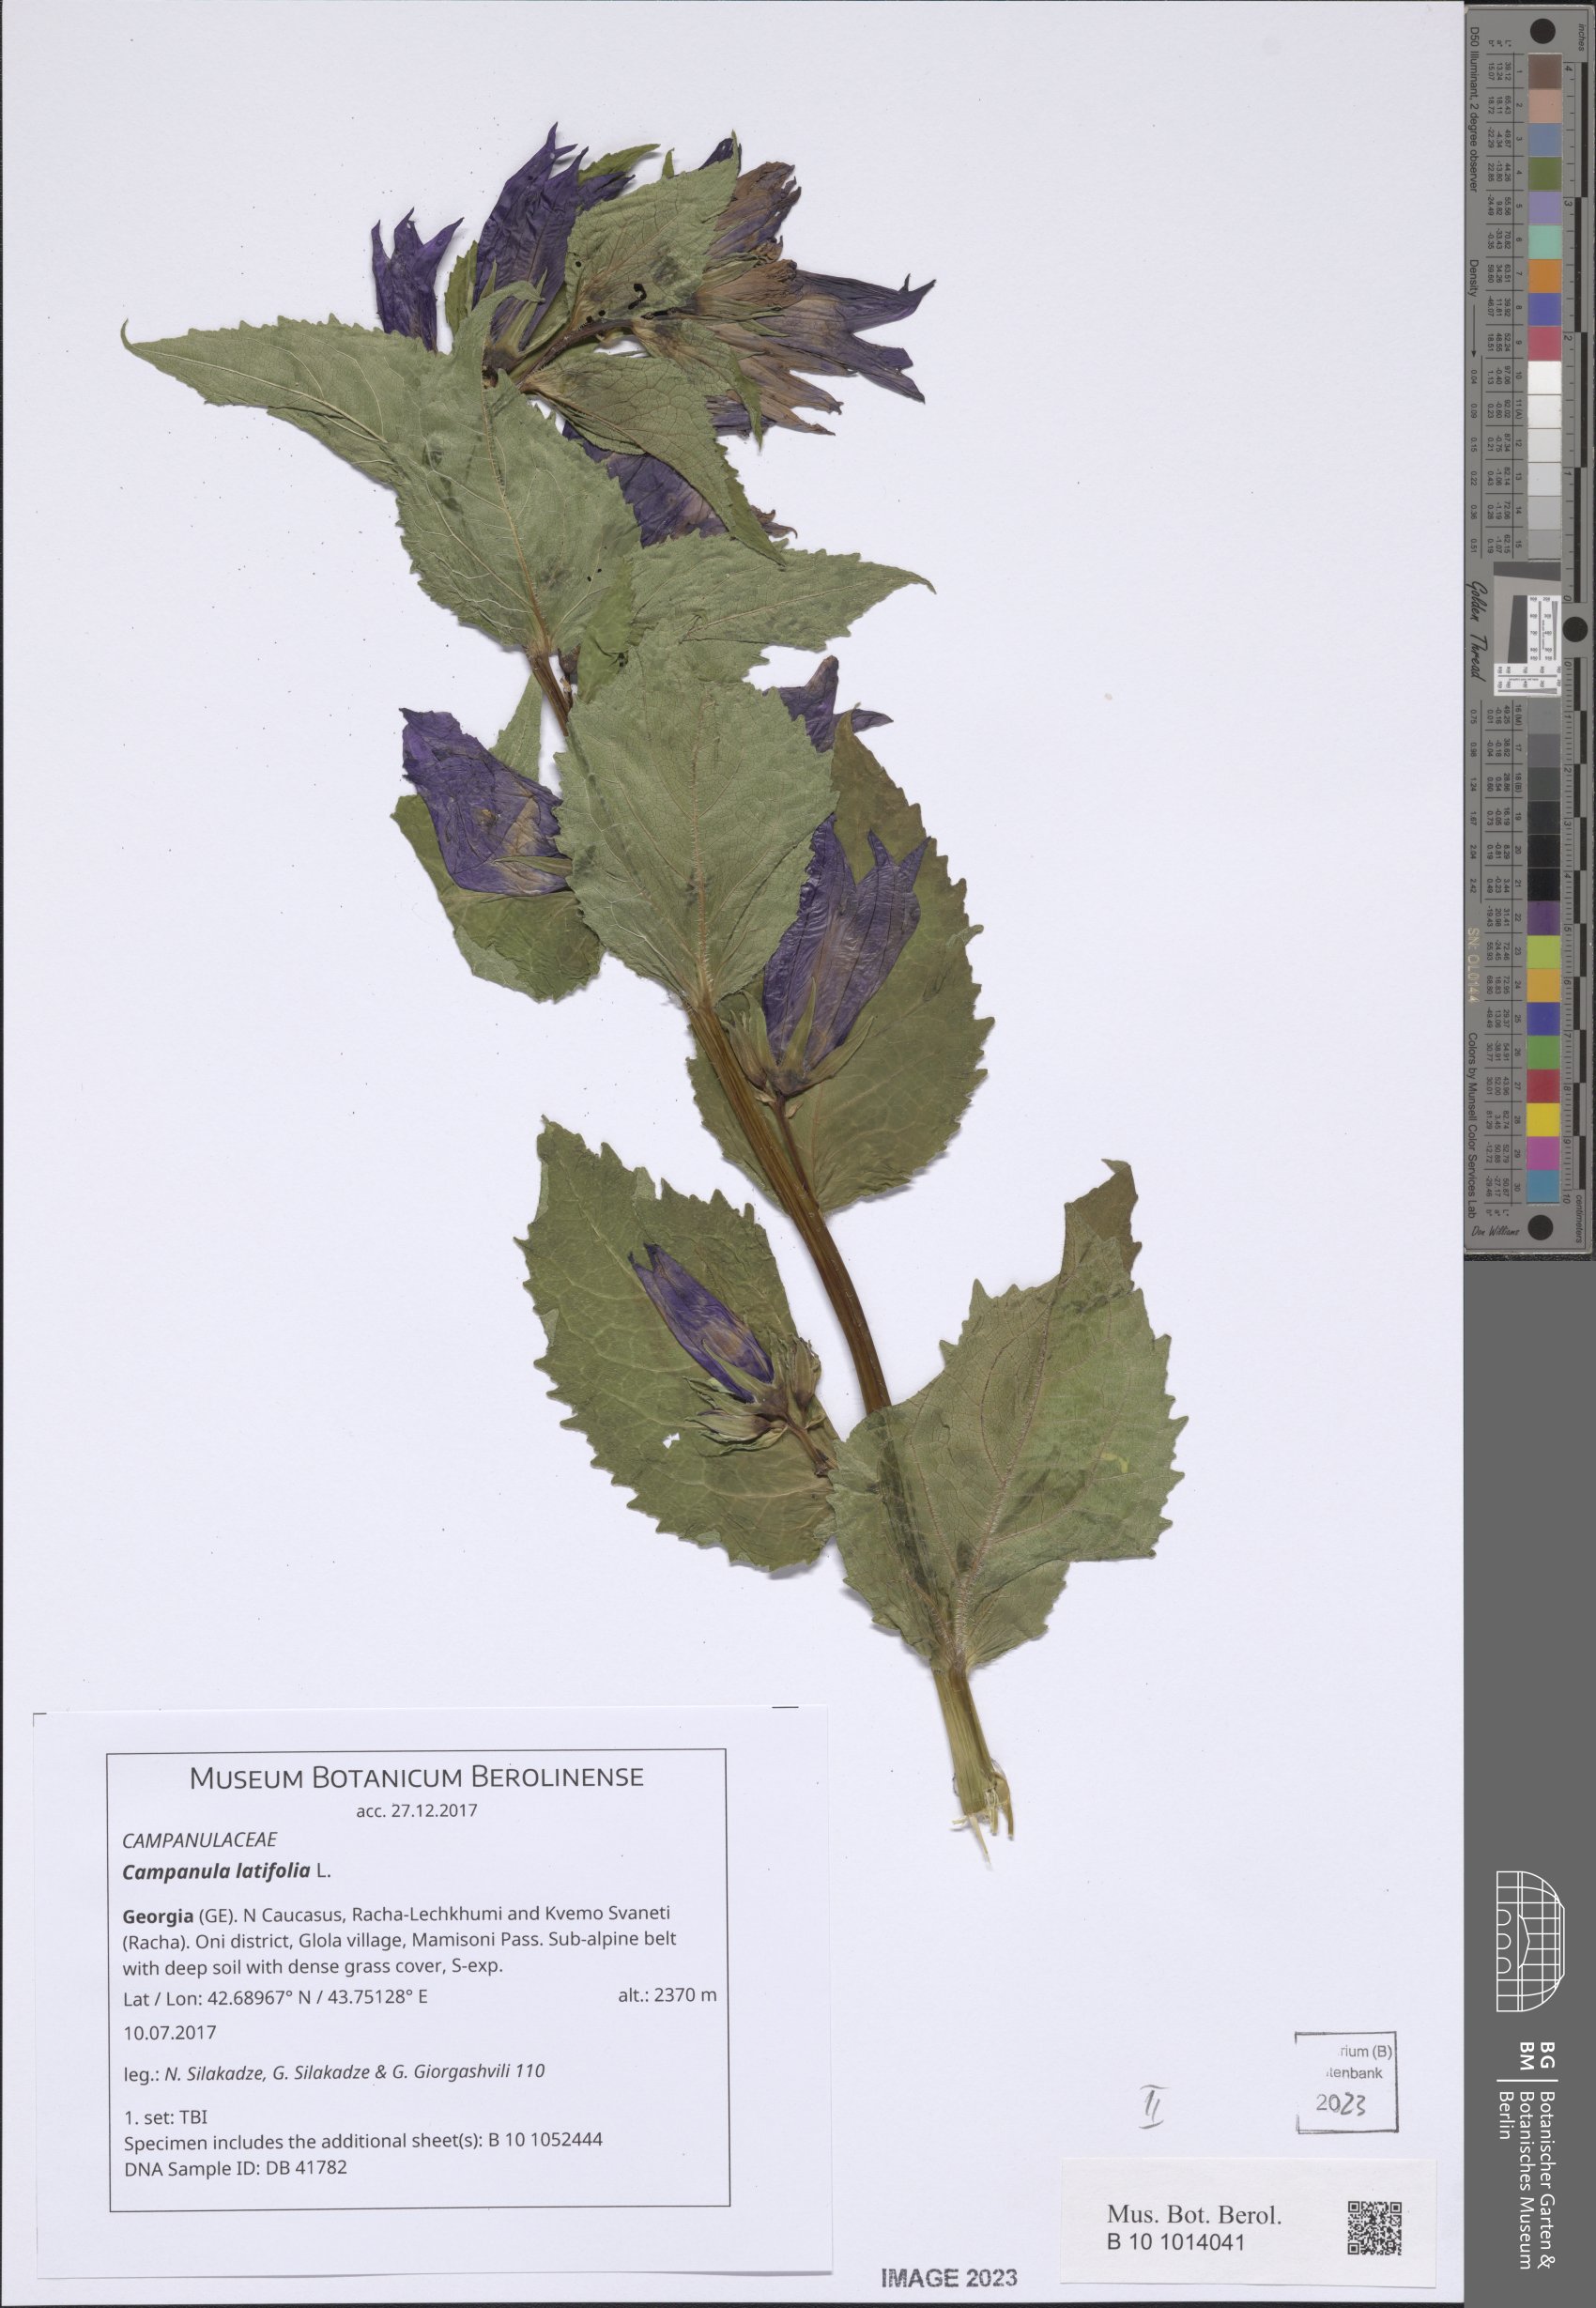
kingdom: Plantae
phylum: Tracheophyta
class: Magnoliopsida
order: Asterales
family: Campanulaceae
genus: Campanula
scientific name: Campanula latifolia
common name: Giant bellflower
